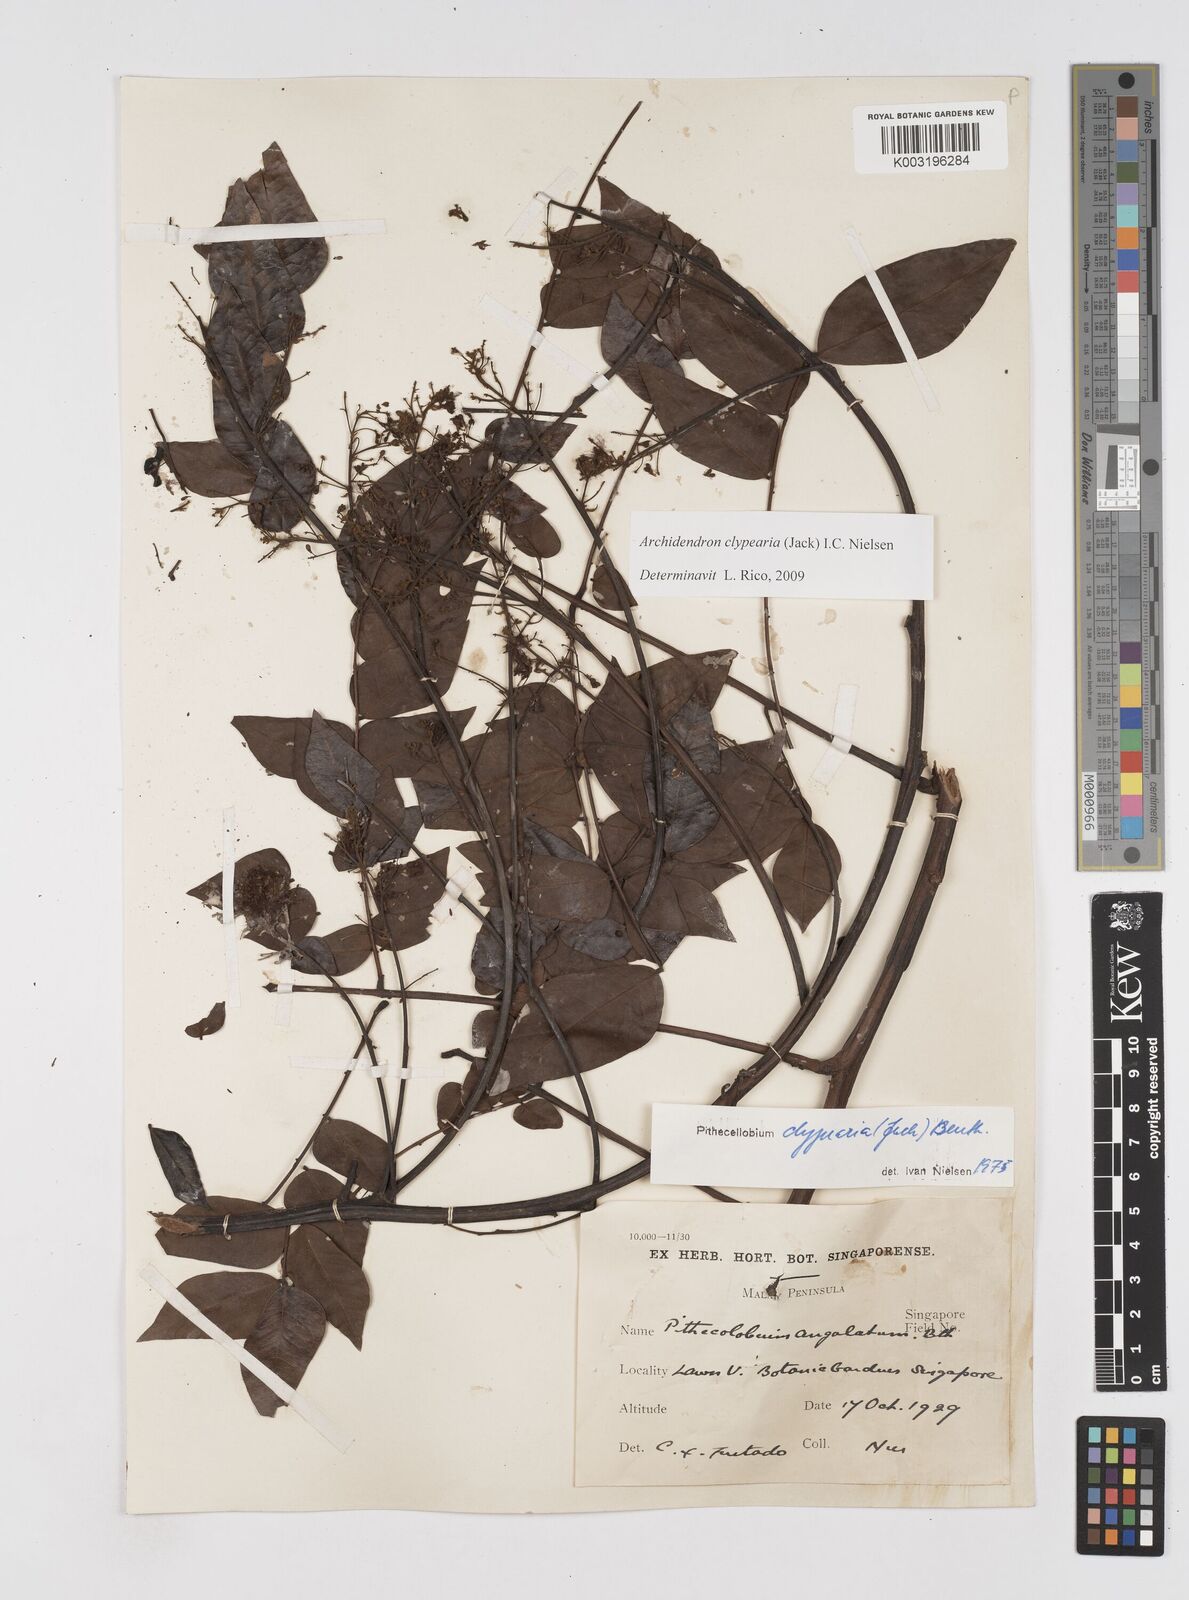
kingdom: Plantae
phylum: Tracheophyta
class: Magnoliopsida
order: Fabales
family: Fabaceae
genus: Archidendron
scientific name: Archidendron clypearia
